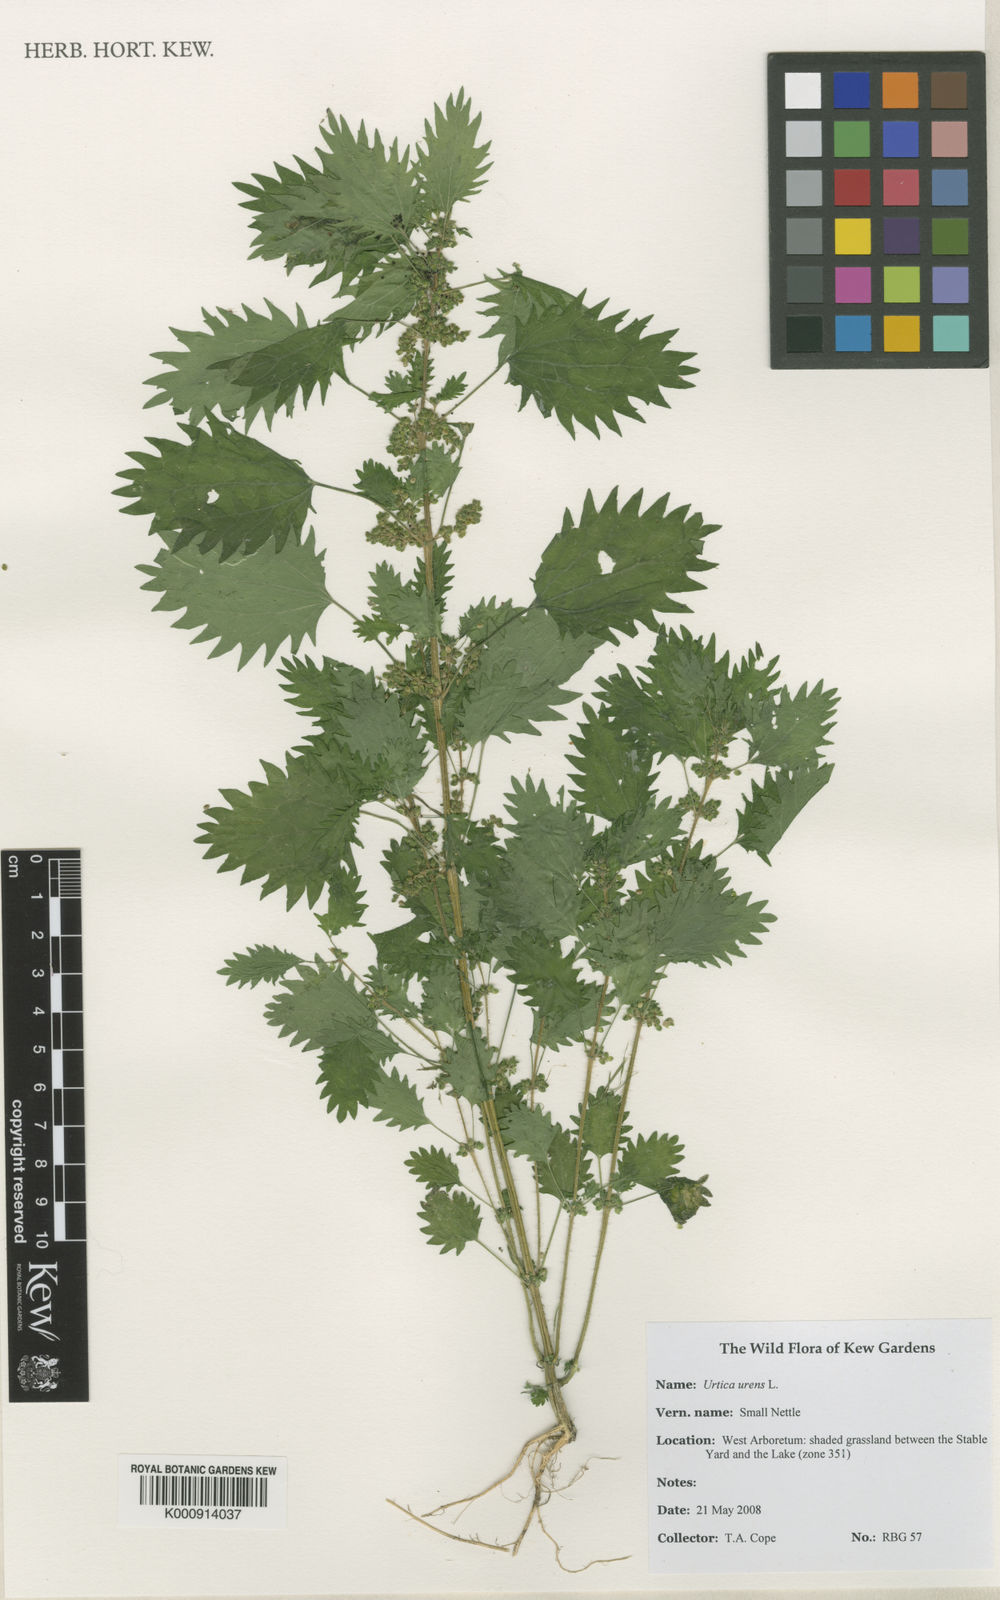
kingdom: Plantae
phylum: Tracheophyta
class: Magnoliopsida
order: Rosales
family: Urticaceae
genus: Urtica
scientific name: Urtica urens
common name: Dwarf nettle
